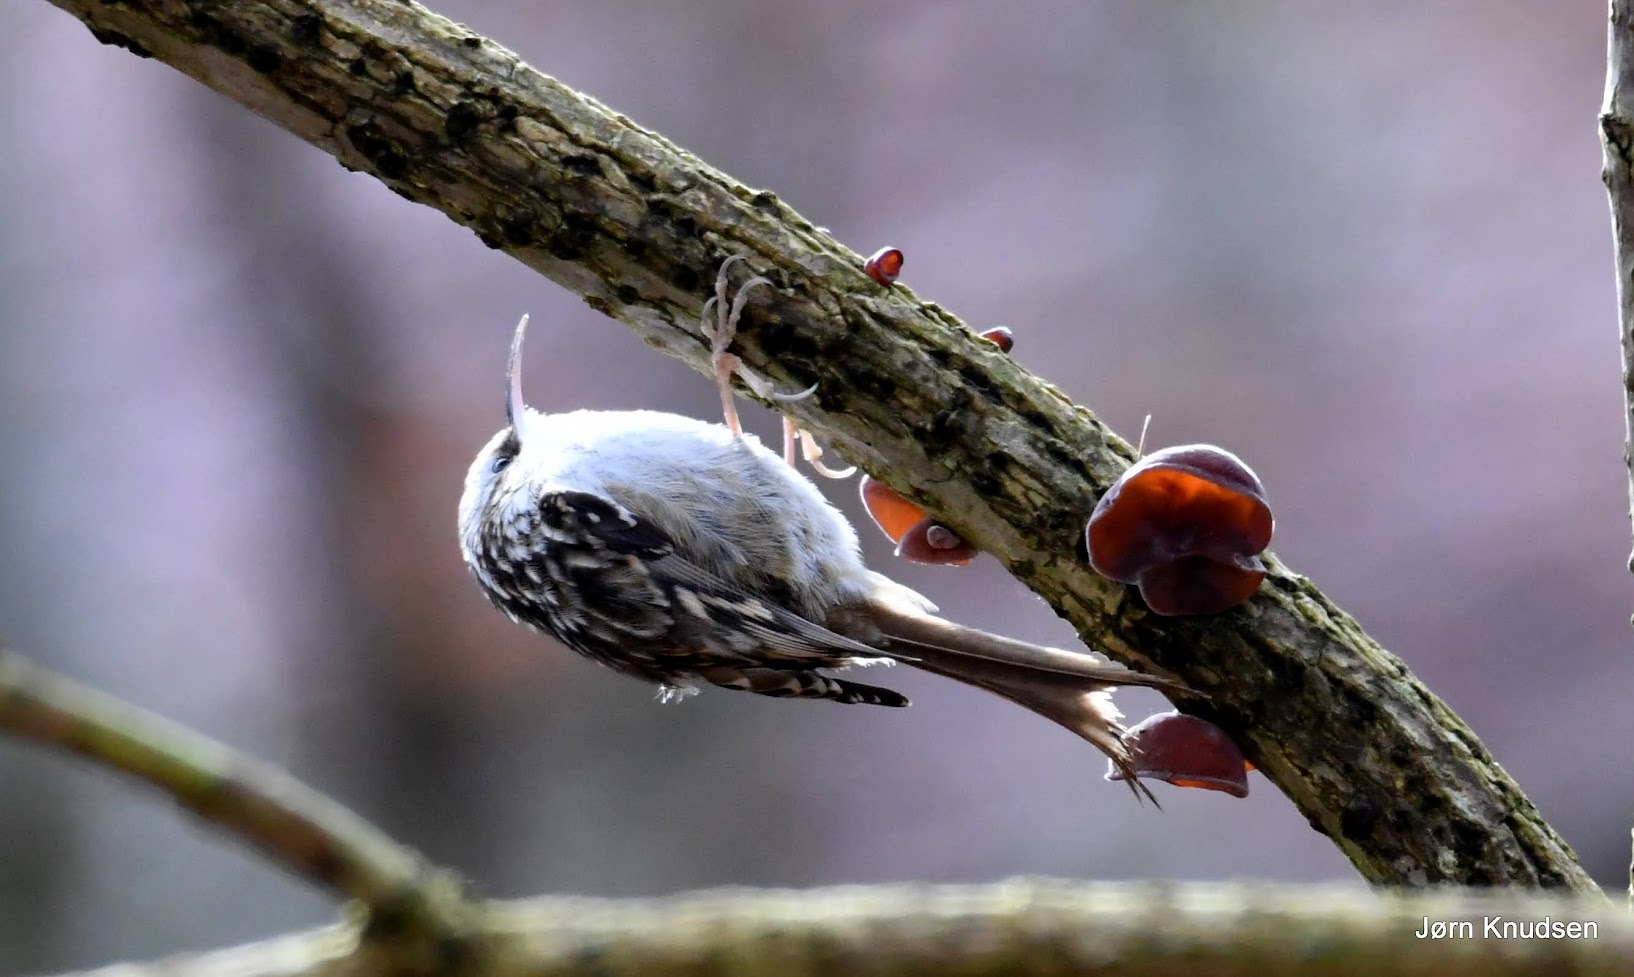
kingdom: Animalia
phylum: Chordata
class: Aves
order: Passeriformes
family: Certhiidae
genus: Certhia
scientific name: Certhia brachydactyla
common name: Korttået træløber
